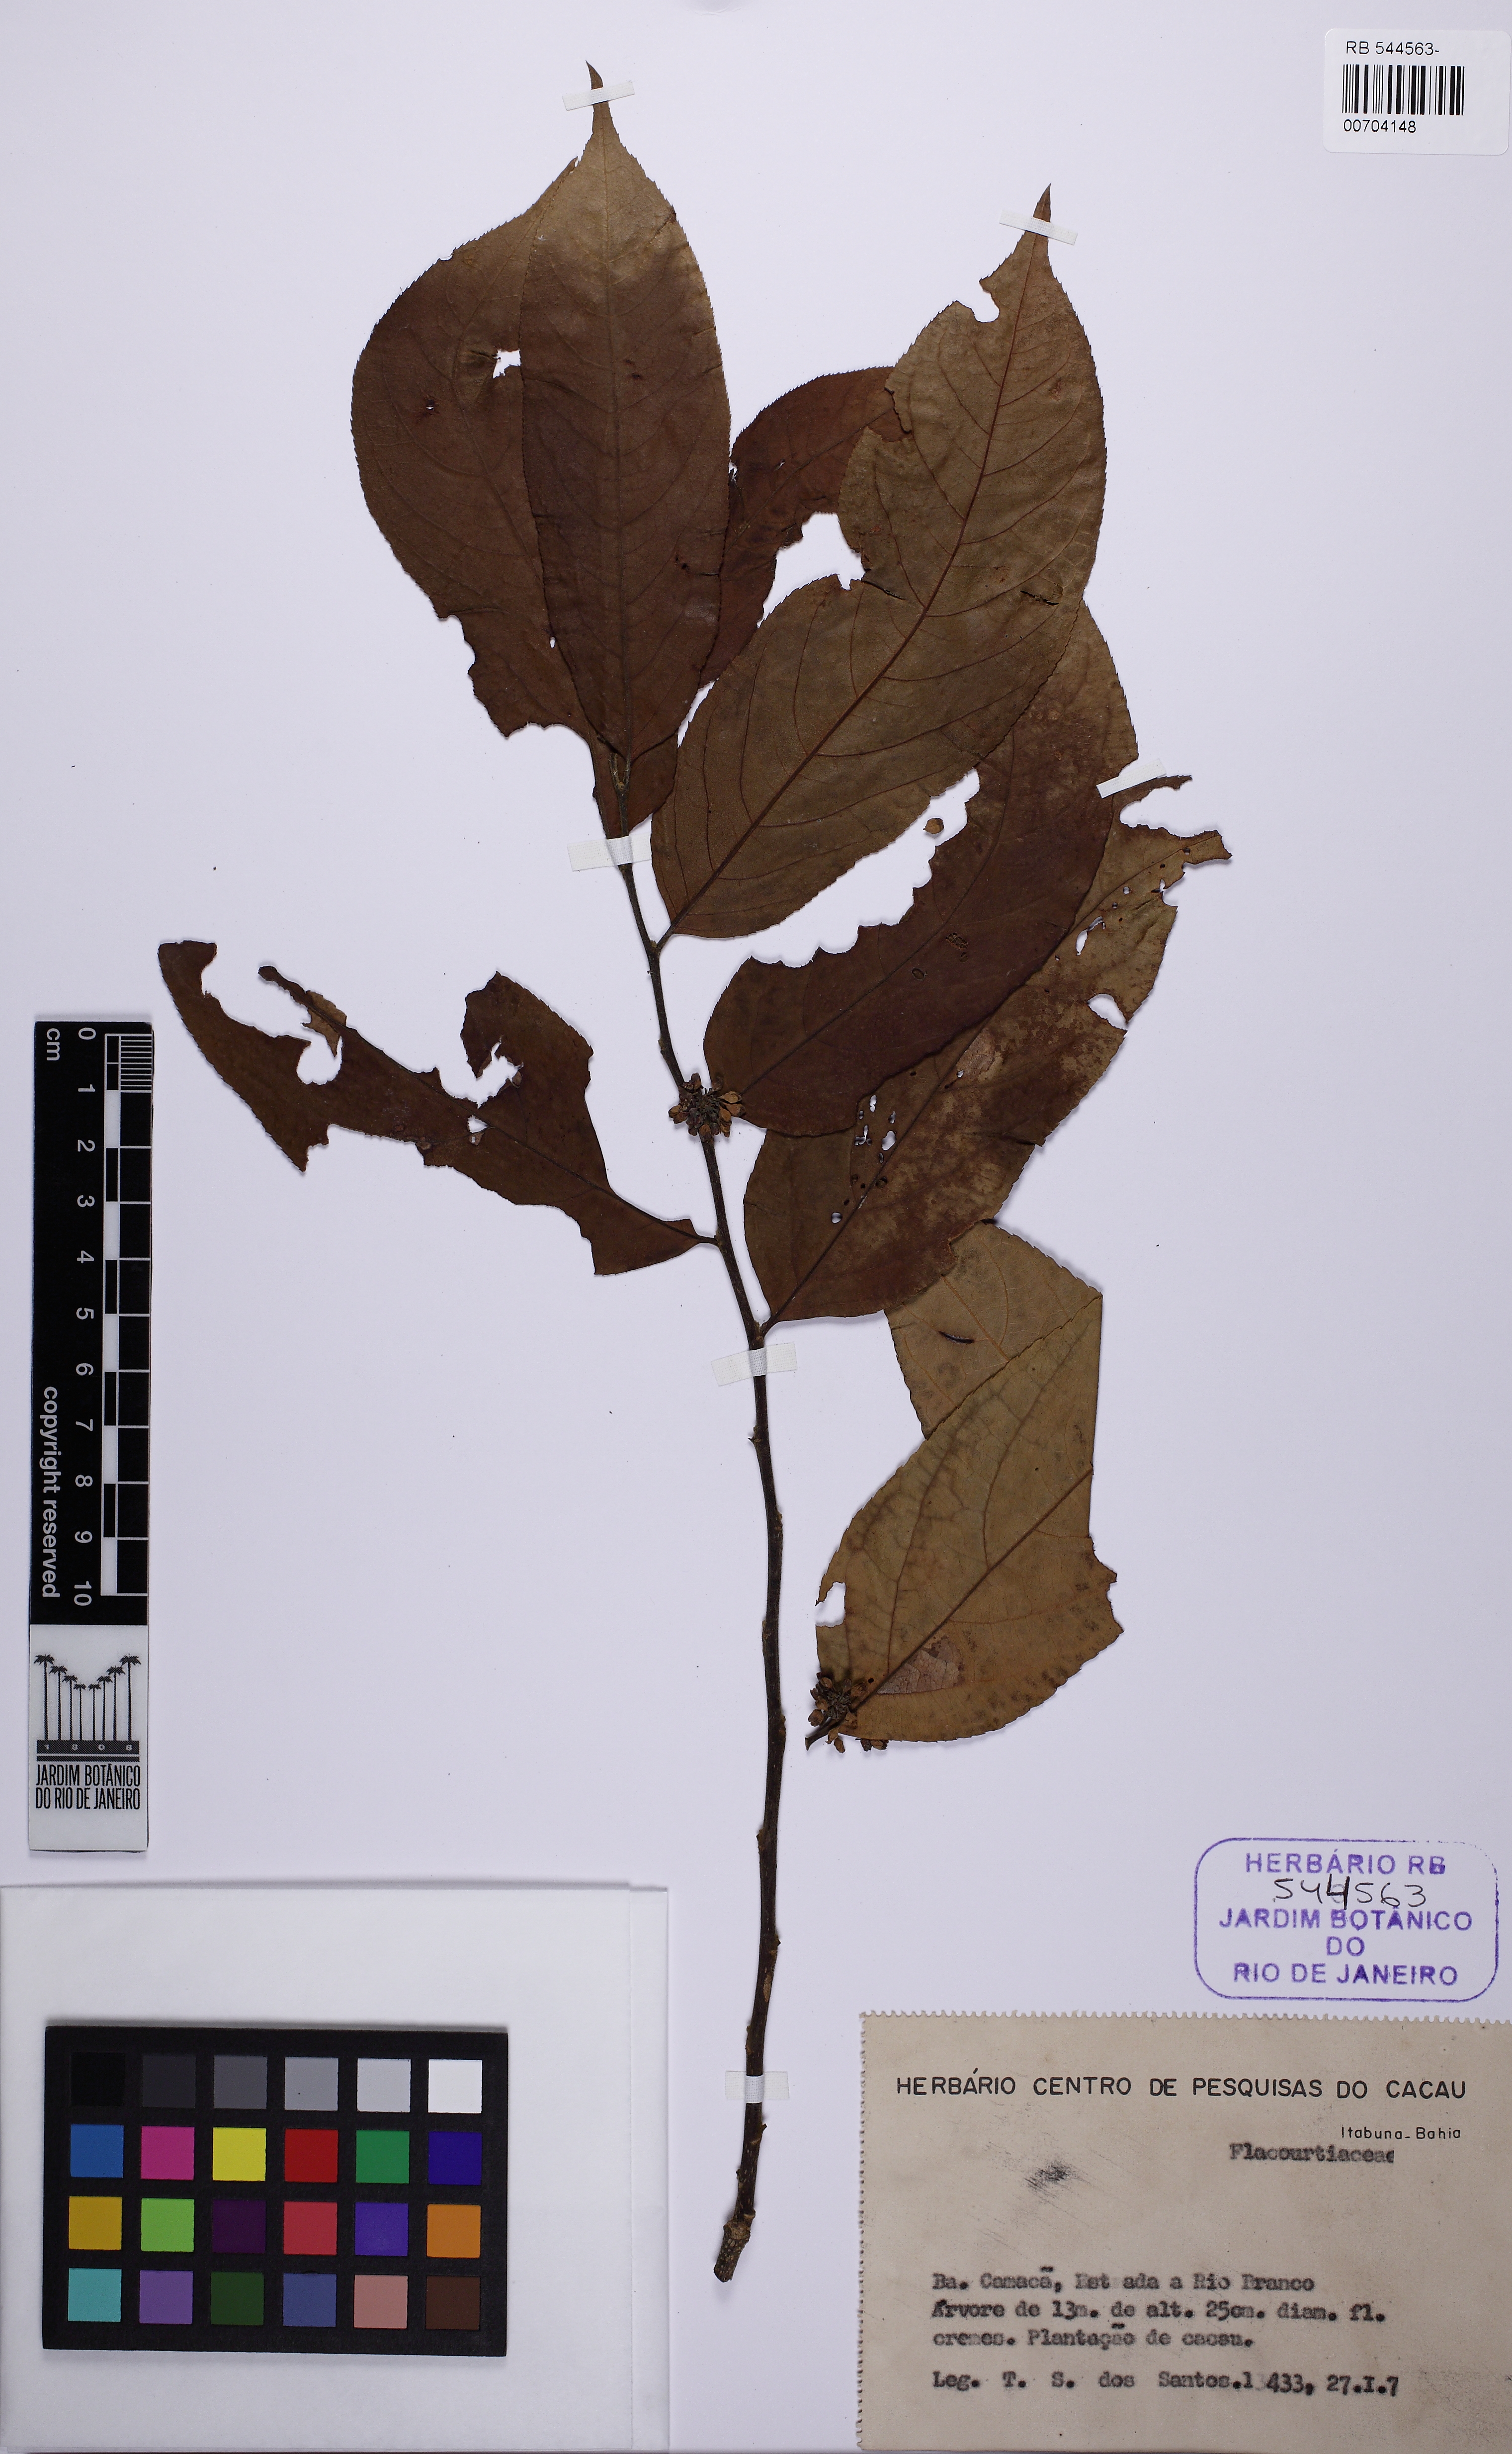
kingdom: Plantae
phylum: Tracheophyta
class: Magnoliopsida
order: Malpighiales
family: Salicaceae
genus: Casearia
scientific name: Casearia ulmifolia
